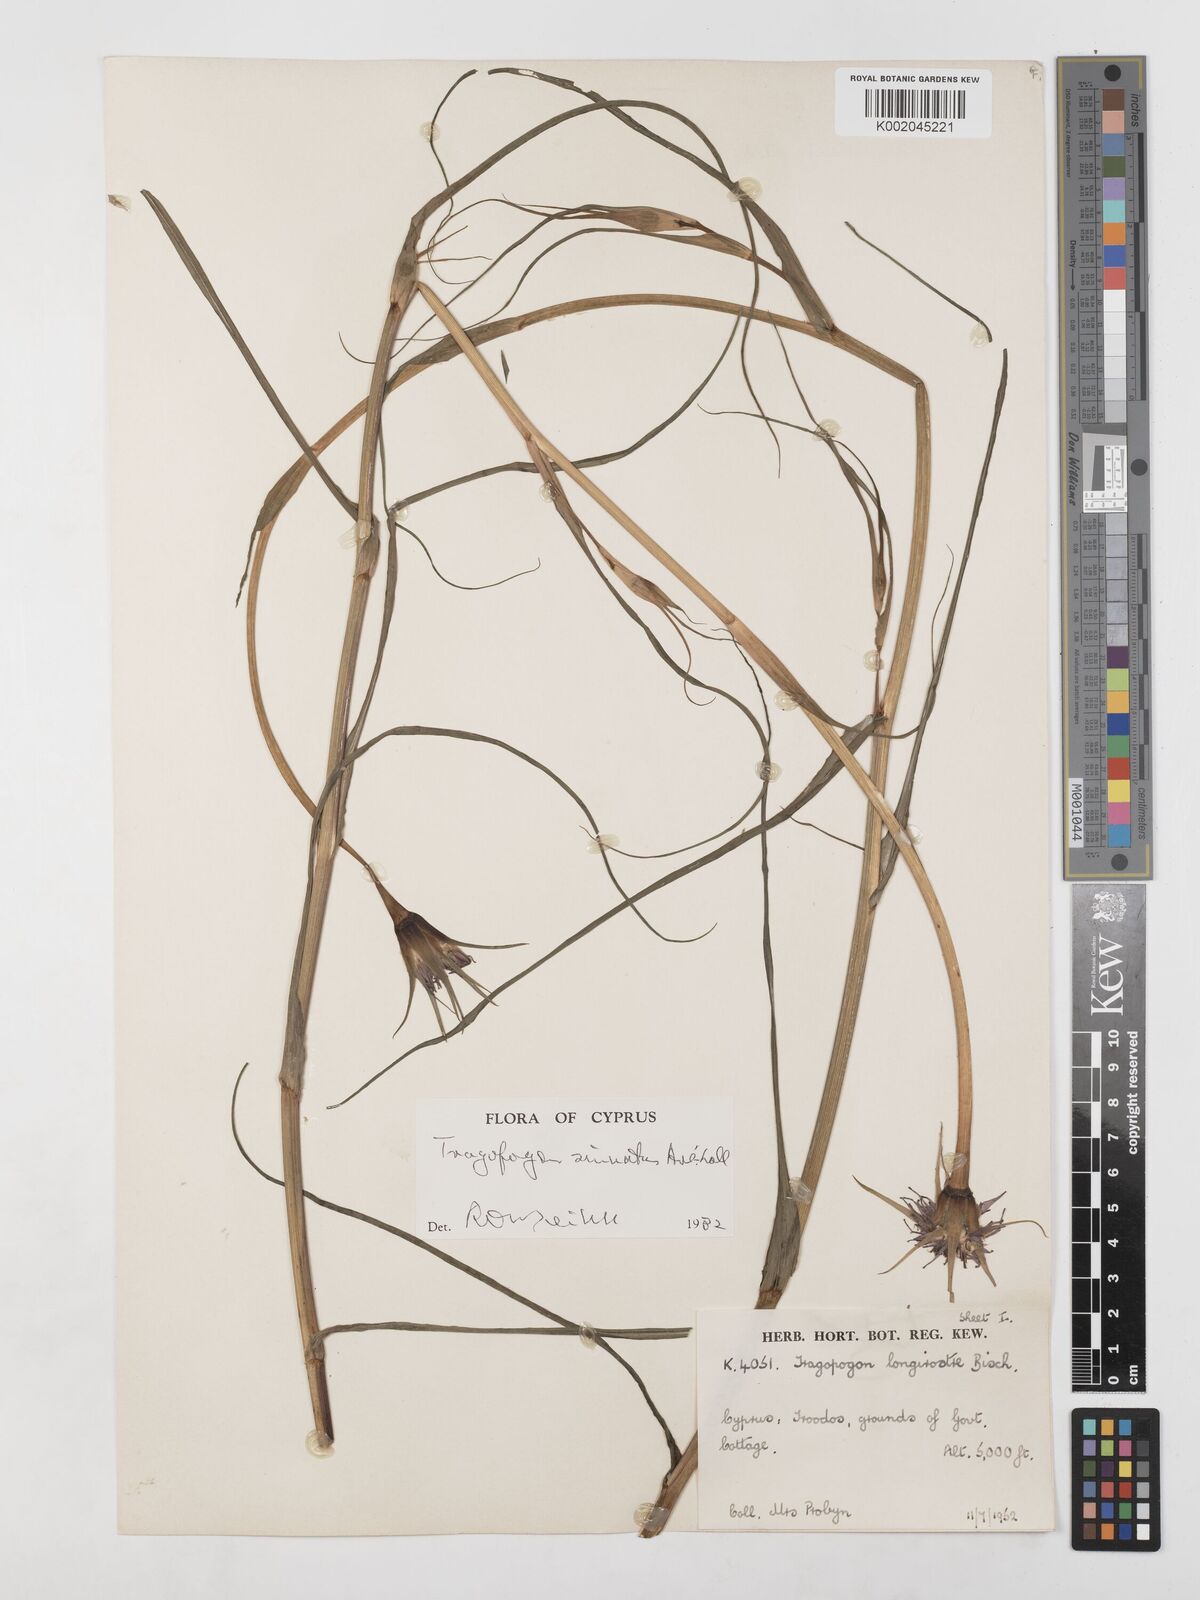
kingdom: Plantae
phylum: Tracheophyta
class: Magnoliopsida
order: Asterales
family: Asteraceae
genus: Tragopogon
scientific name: Tragopogon porrifolius
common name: Salsify
